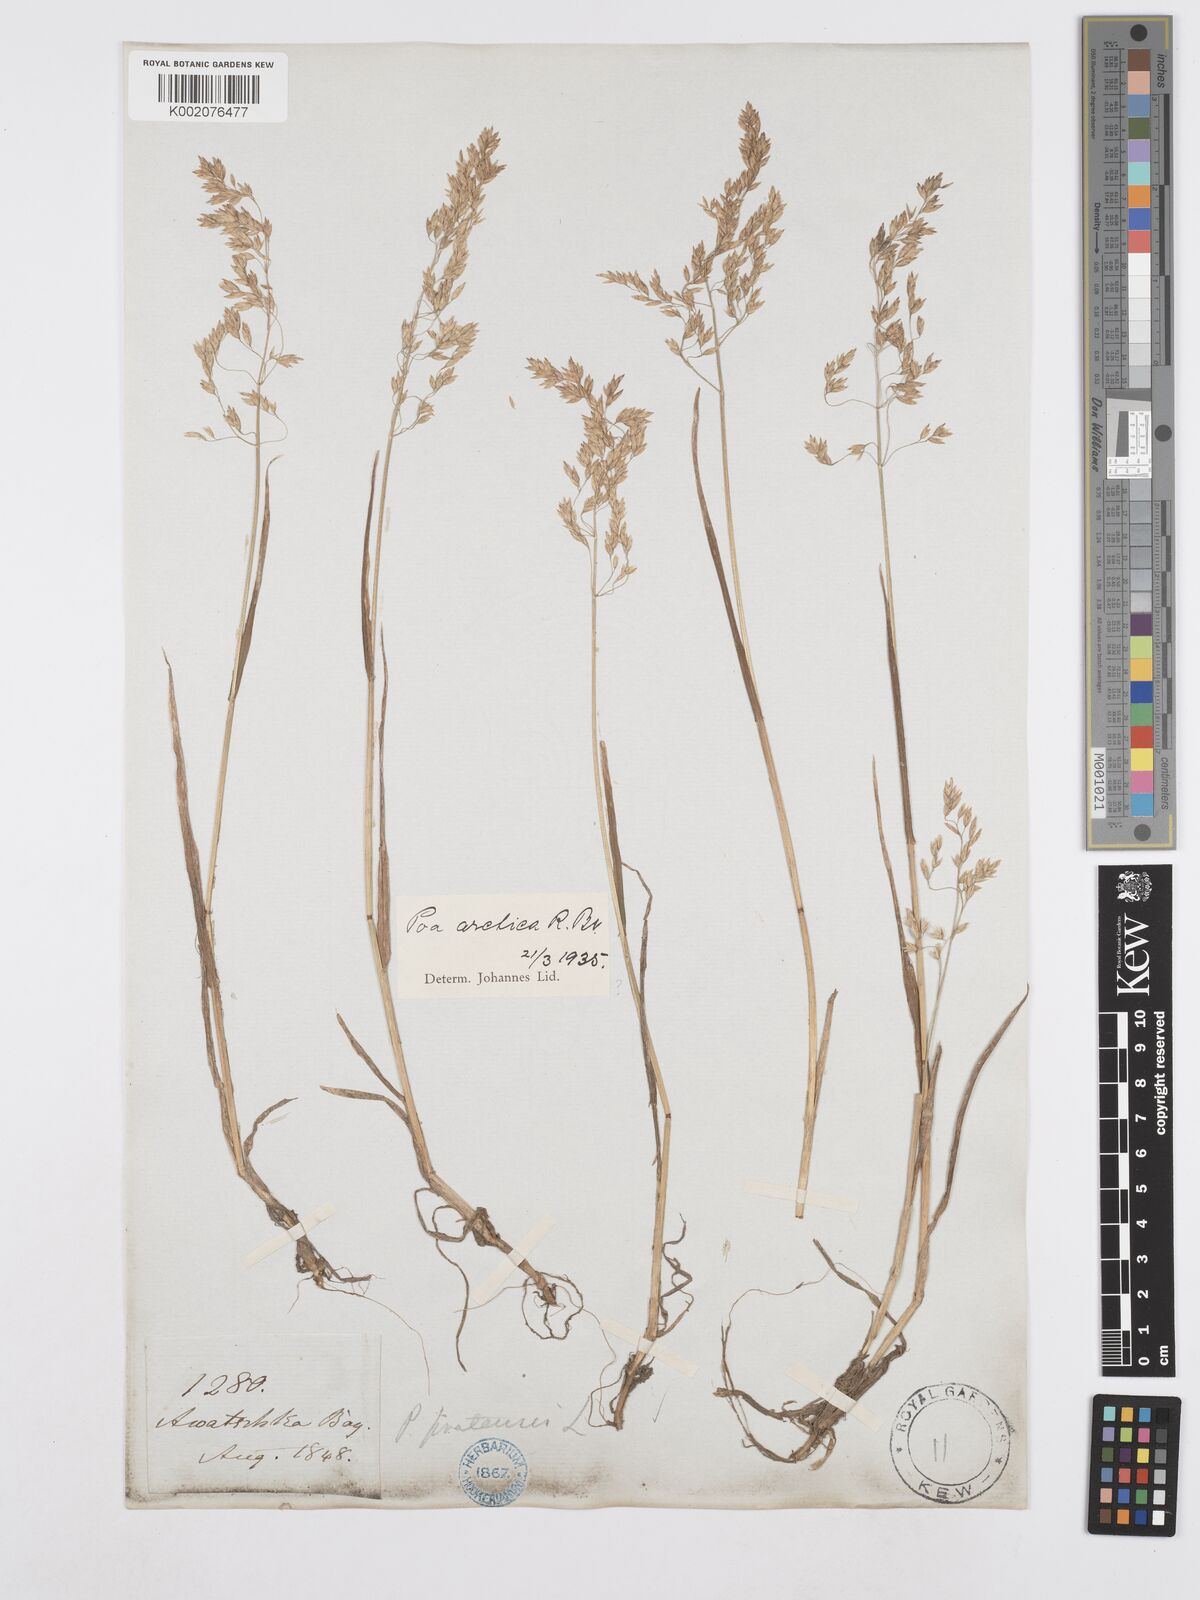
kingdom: Plantae
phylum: Tracheophyta
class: Liliopsida
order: Poales
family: Poaceae
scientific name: Poaceae
